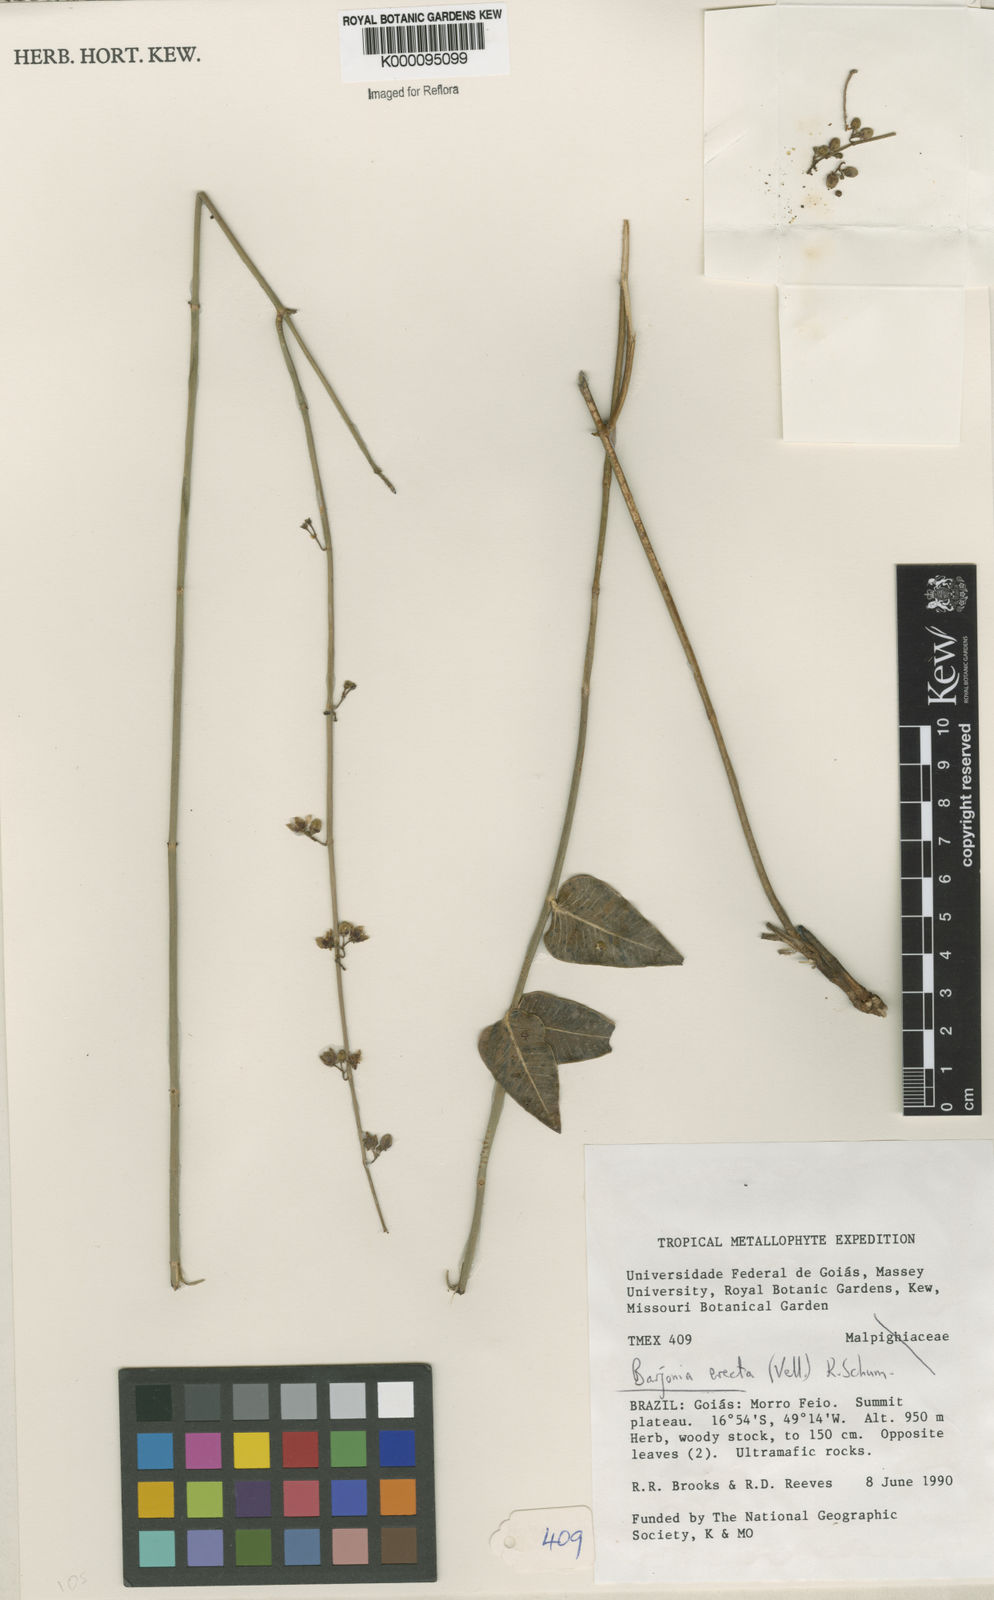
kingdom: Plantae
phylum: Tracheophyta
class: Magnoliopsida
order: Gentianales
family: Apocynaceae
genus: Barjonia
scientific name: Barjonia erecta
